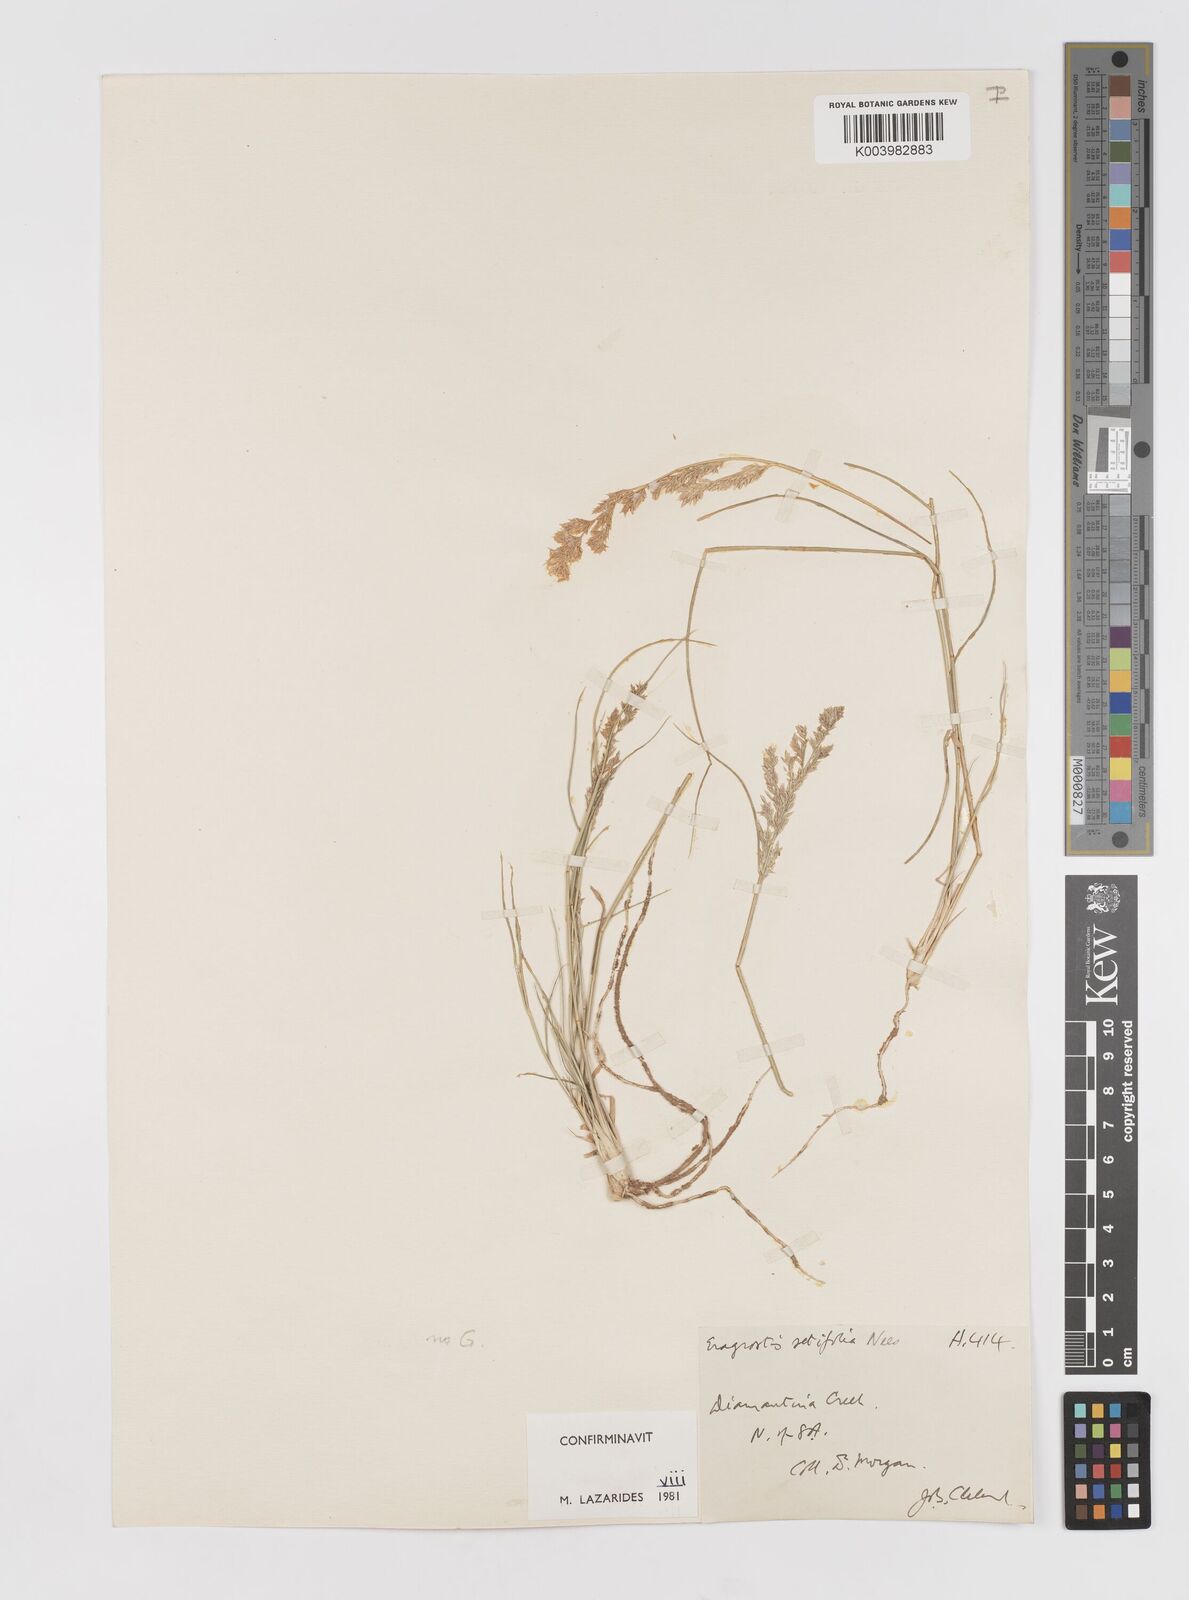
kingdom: Plantae
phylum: Tracheophyta
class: Liliopsida
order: Poales
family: Poaceae
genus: Eragrostis
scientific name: Eragrostis setifolia
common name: Bristleleaf lovegrass
